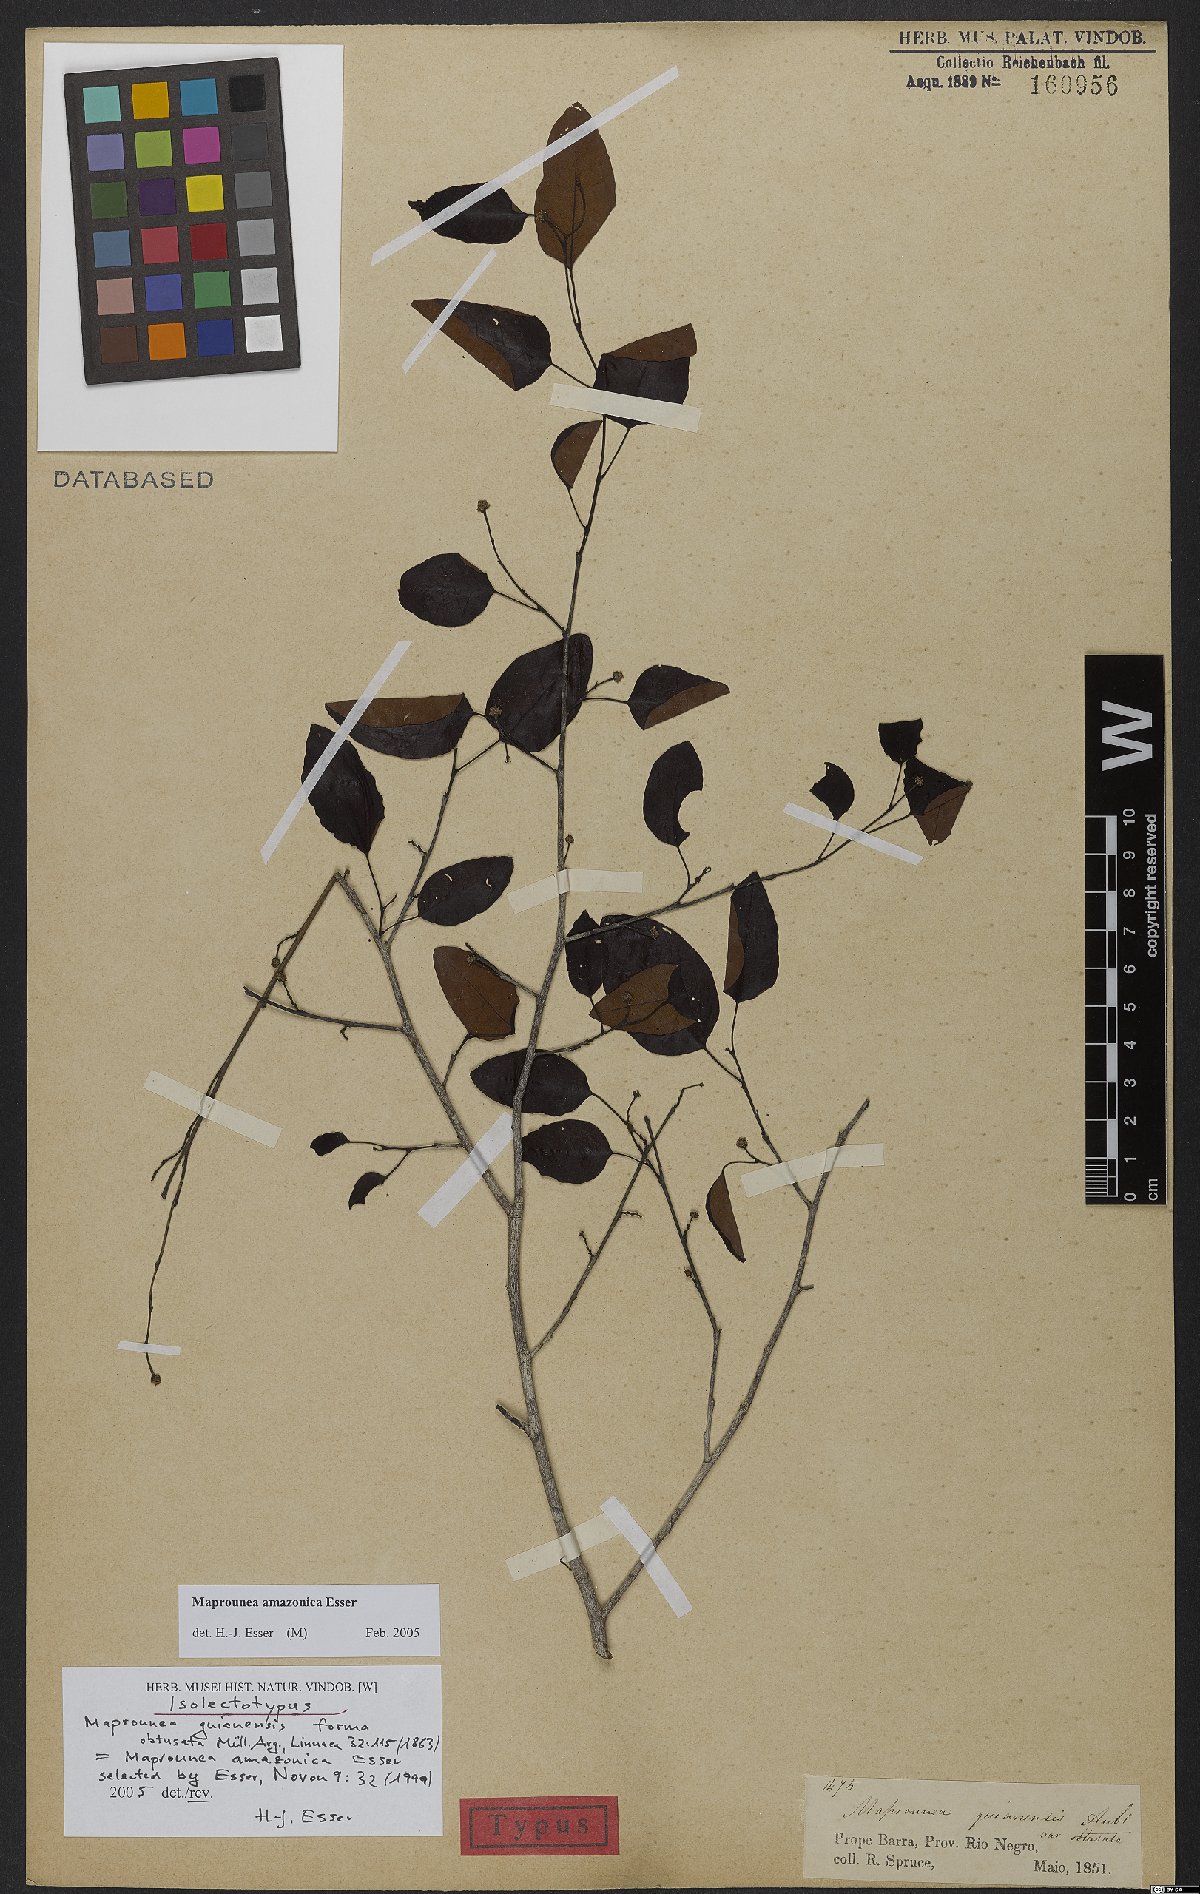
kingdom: Plantae
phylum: Tracheophyta
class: Magnoliopsida
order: Malpighiales
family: Euphorbiaceae
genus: Maprounea
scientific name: Maprounea amazonica
